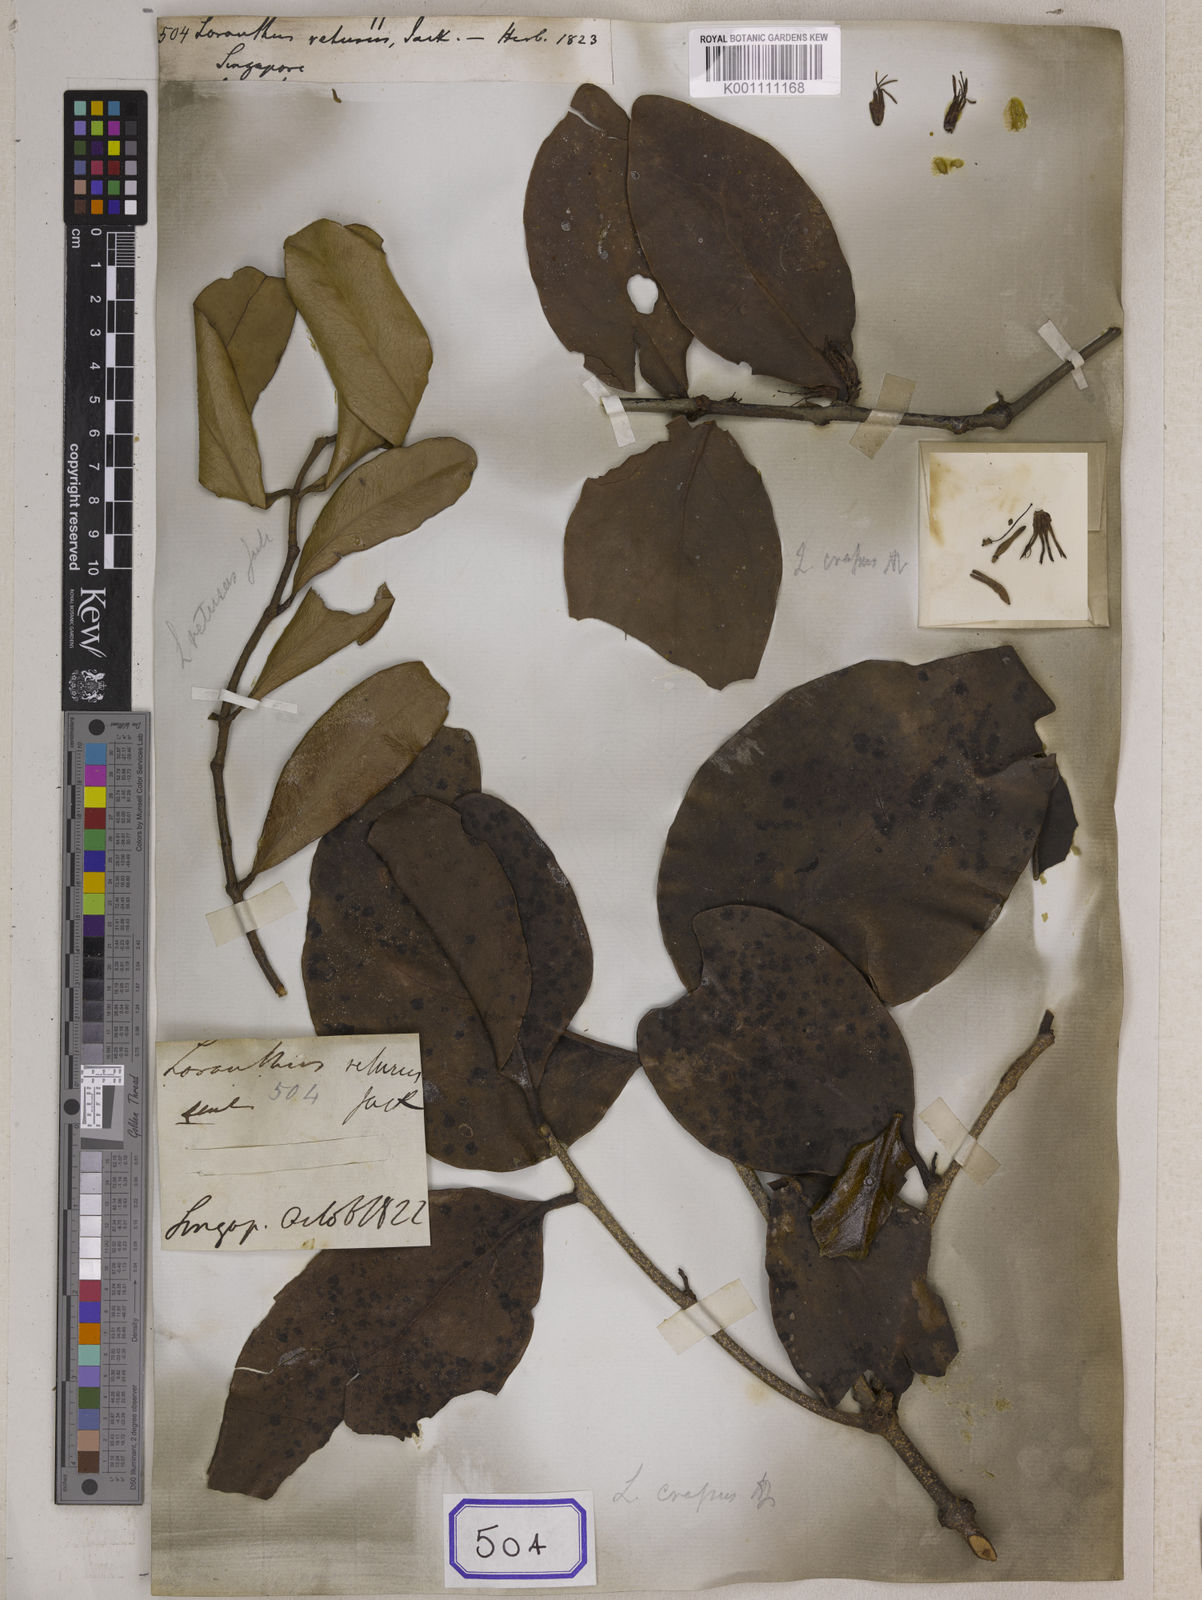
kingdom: Plantae
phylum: Tracheophyta
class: Magnoliopsida
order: Santalales
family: Loranthaceae
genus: Macrosolen
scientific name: Macrosolen retusus
